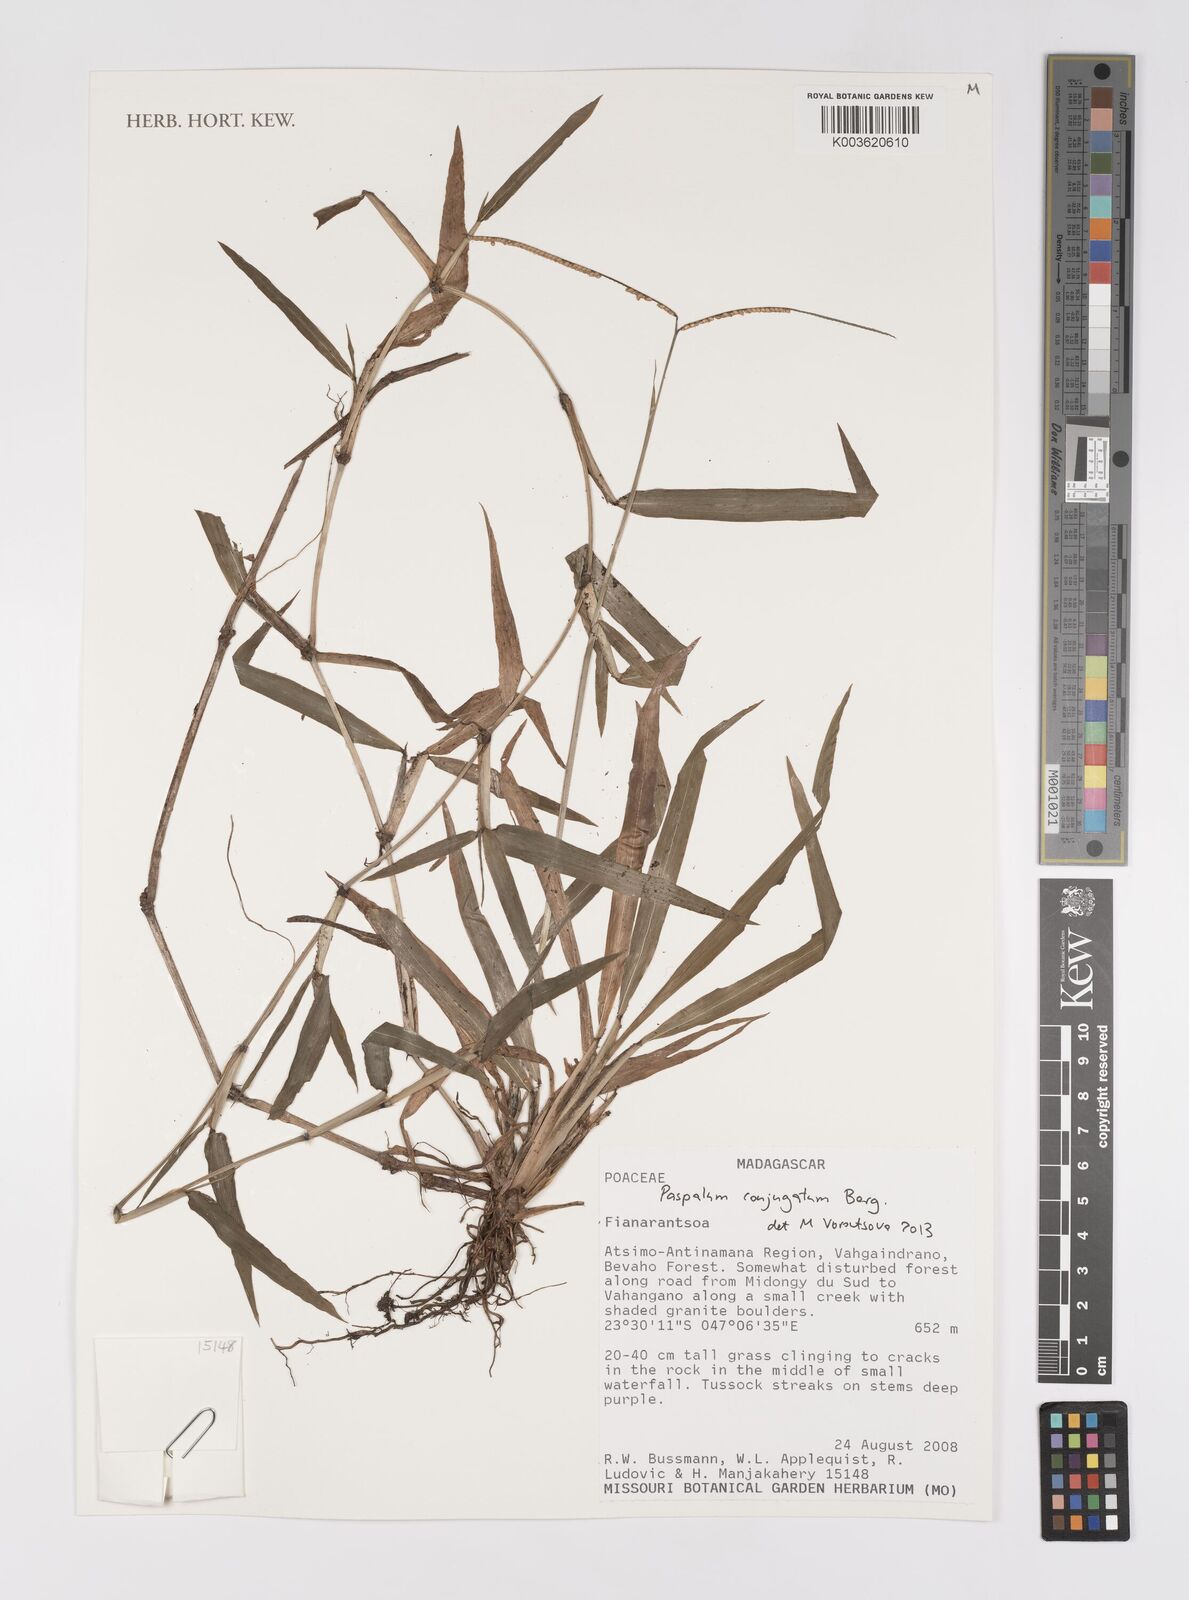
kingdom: Plantae
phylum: Tracheophyta
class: Liliopsida
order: Poales
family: Poaceae
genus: Paspalum
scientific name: Paspalum conjugatum
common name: Hilograss
